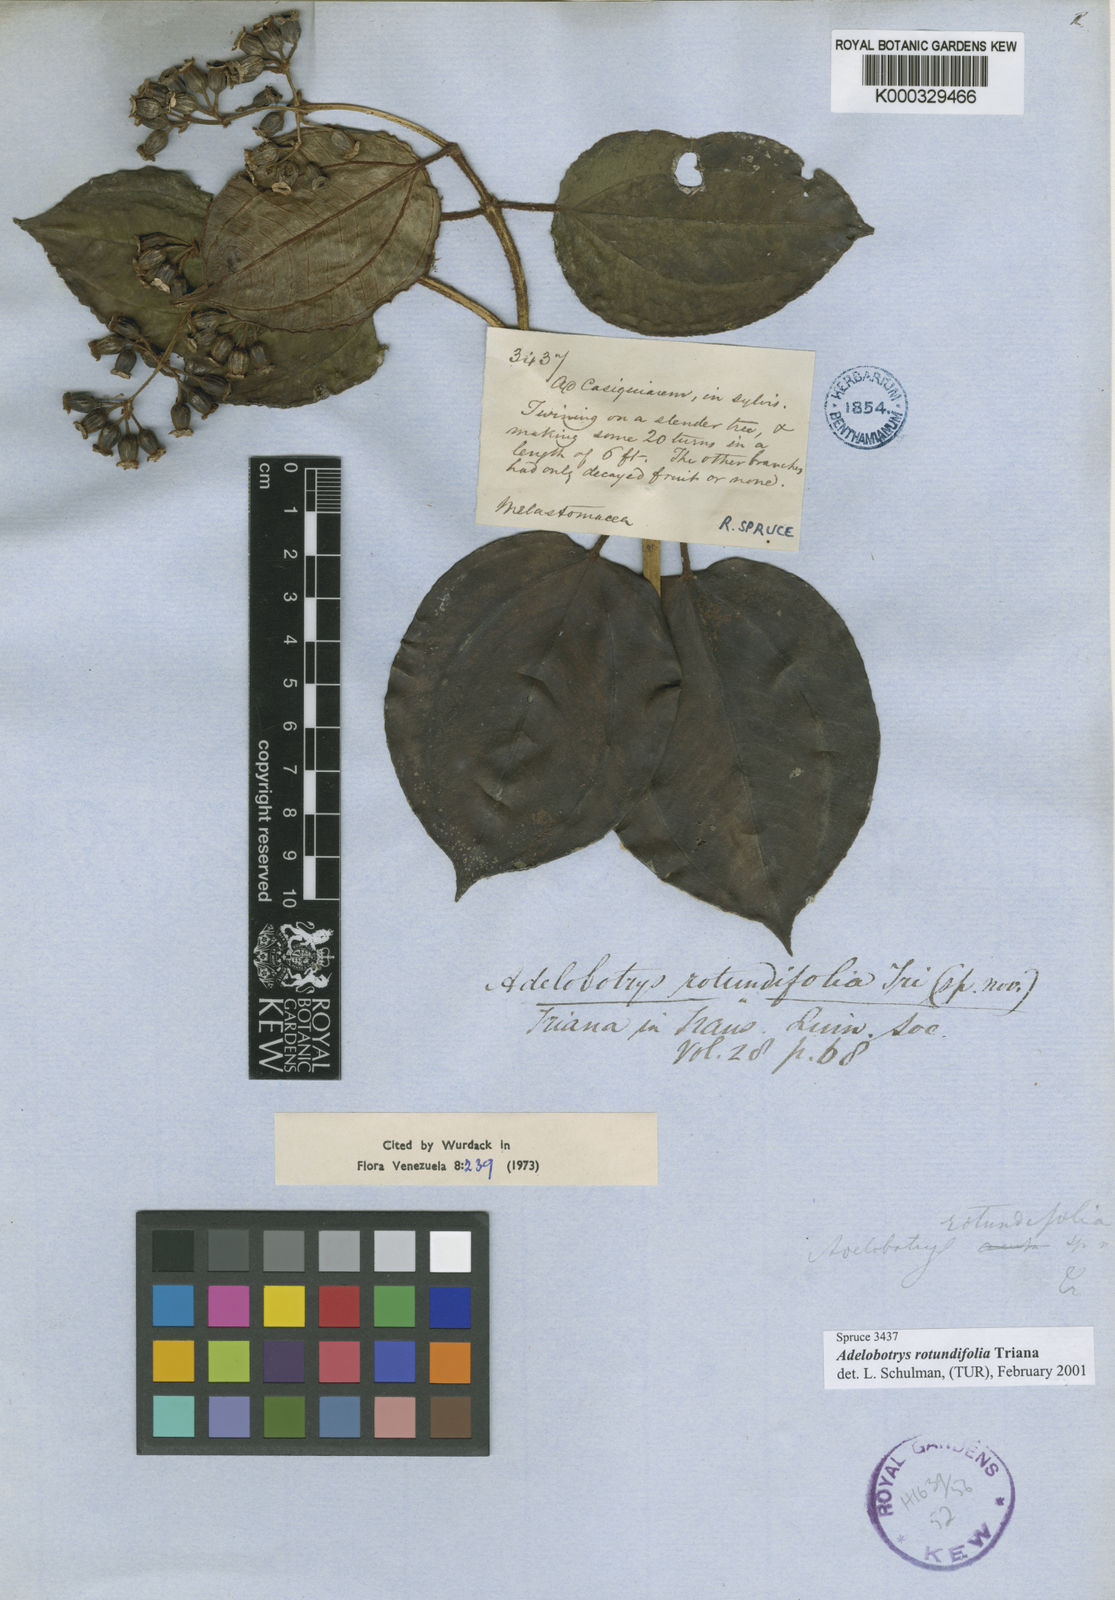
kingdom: Plantae
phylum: Tracheophyta
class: Magnoliopsida
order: Myrtales
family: Melastomataceae
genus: Adelobotrys
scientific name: Adelobotrys rotundifolius
